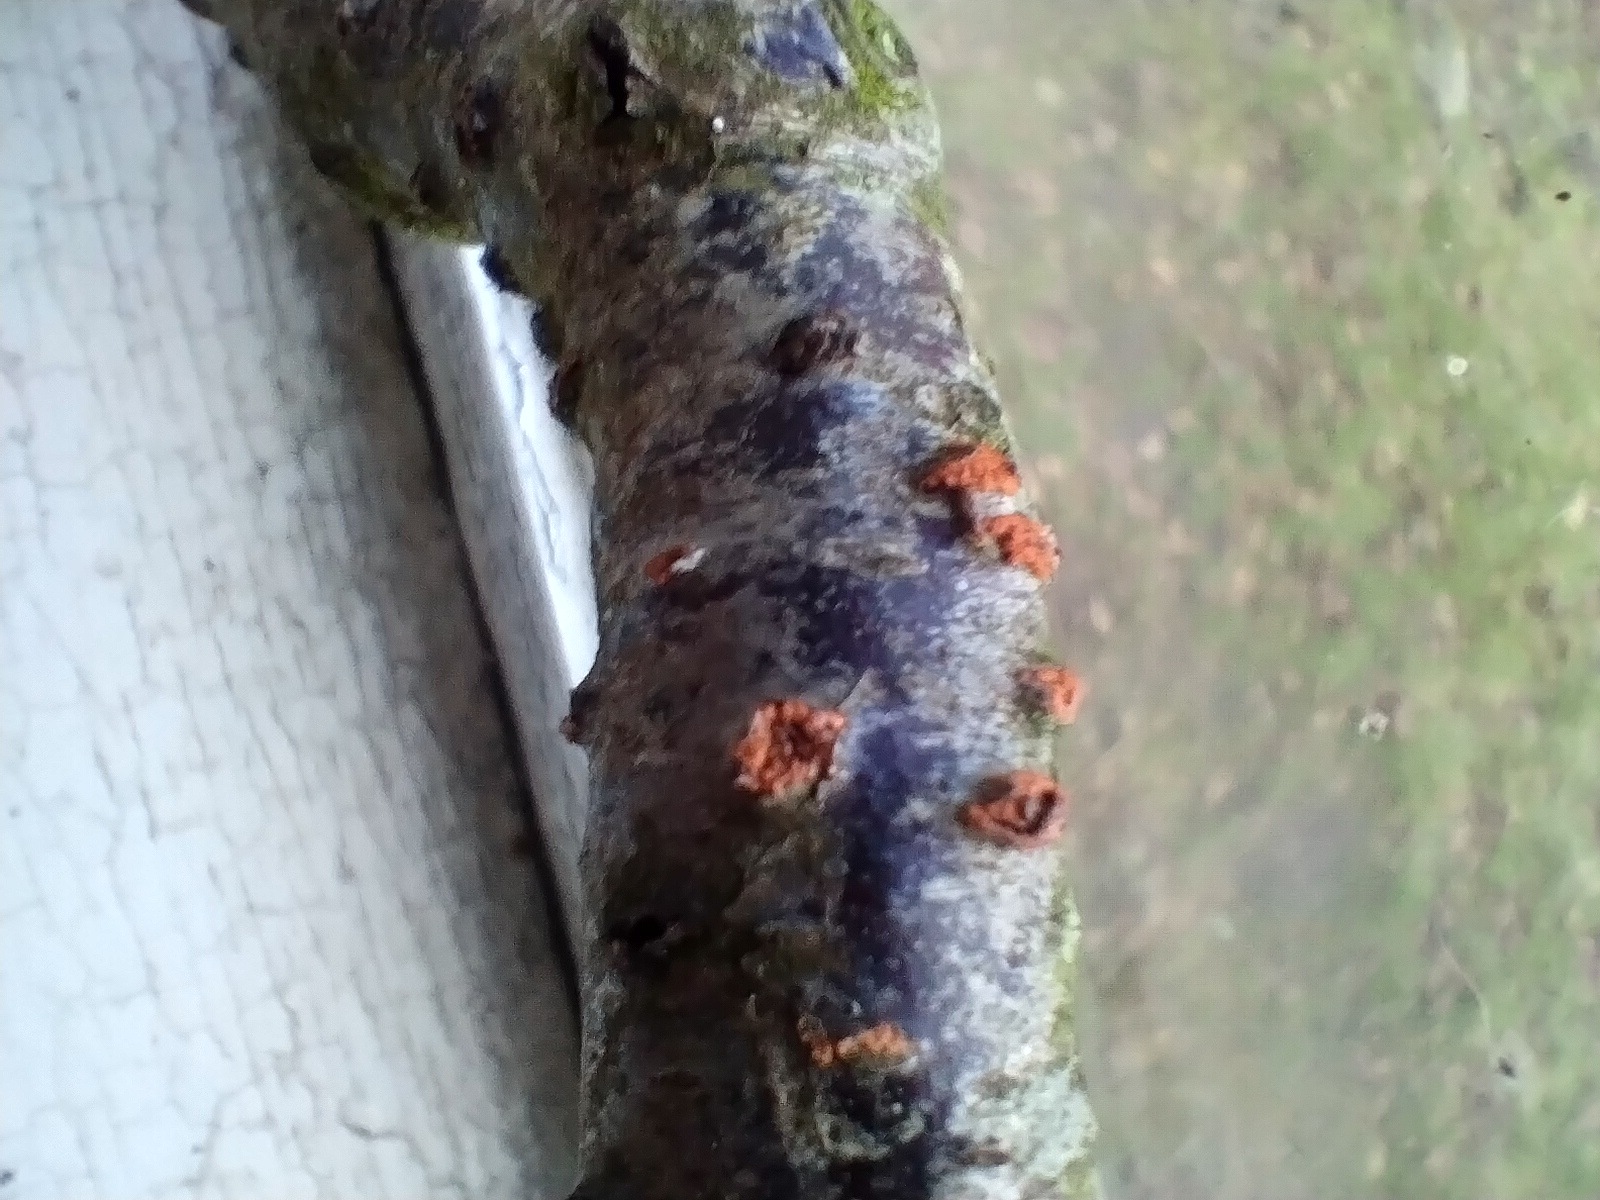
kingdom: Fungi
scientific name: Fungi
